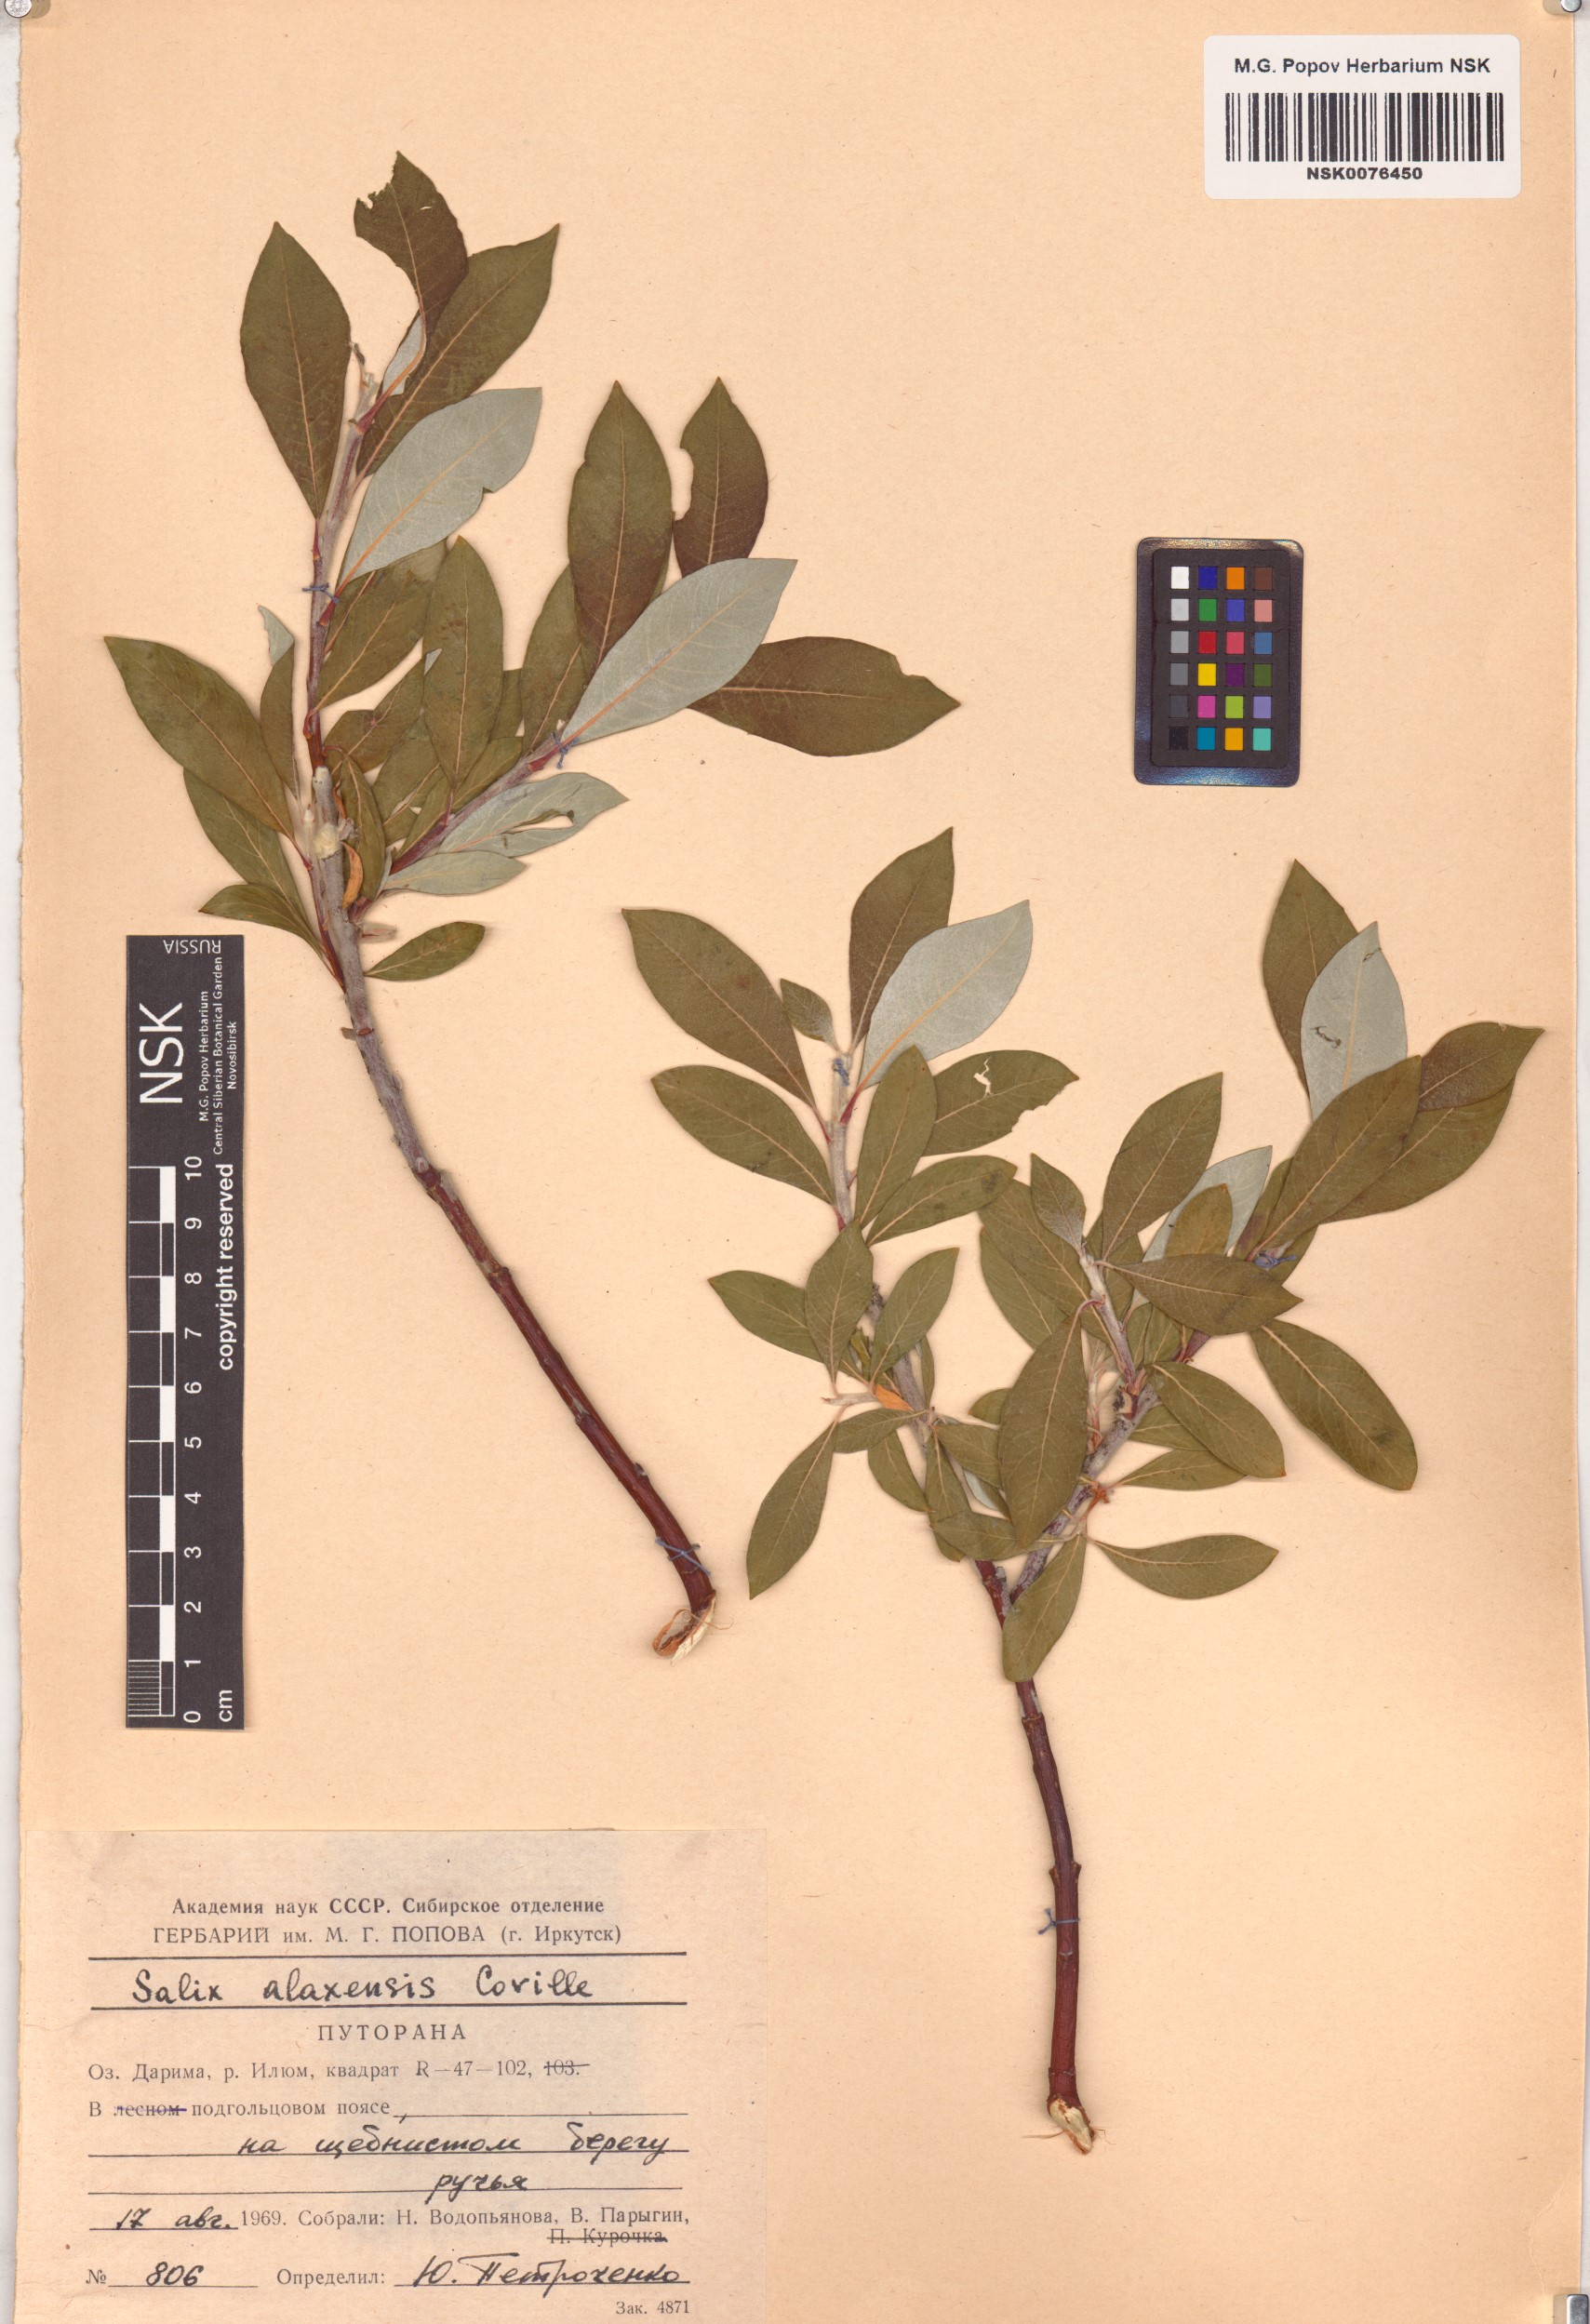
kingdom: Plantae
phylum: Tracheophyta
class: Magnoliopsida
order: Malpighiales
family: Salicaceae
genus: Salix
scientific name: Salix alaxensis
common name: Feltleaf willow
